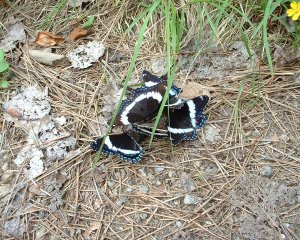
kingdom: Animalia
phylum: Arthropoda
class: Insecta
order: Lepidoptera
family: Nymphalidae
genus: Limenitis
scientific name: Limenitis arthemis
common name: Red-spotted Admiral
